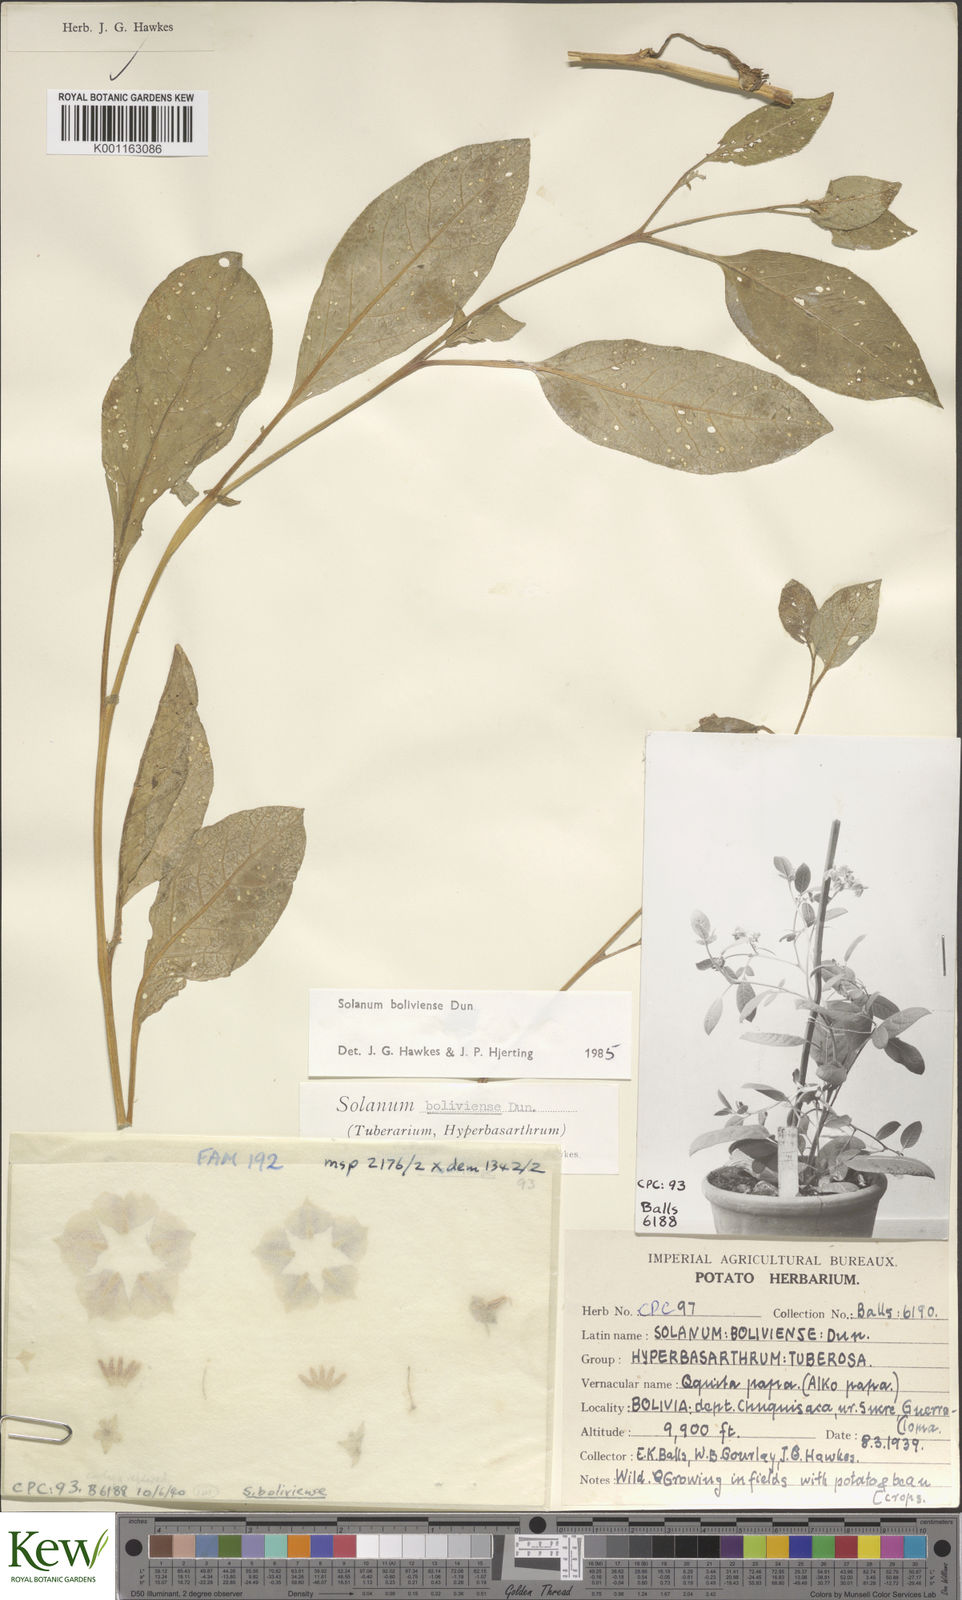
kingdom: Plantae
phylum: Tracheophyta
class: Magnoliopsida
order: Solanales
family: Solanaceae
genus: Solanum
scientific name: Solanum boliviense
